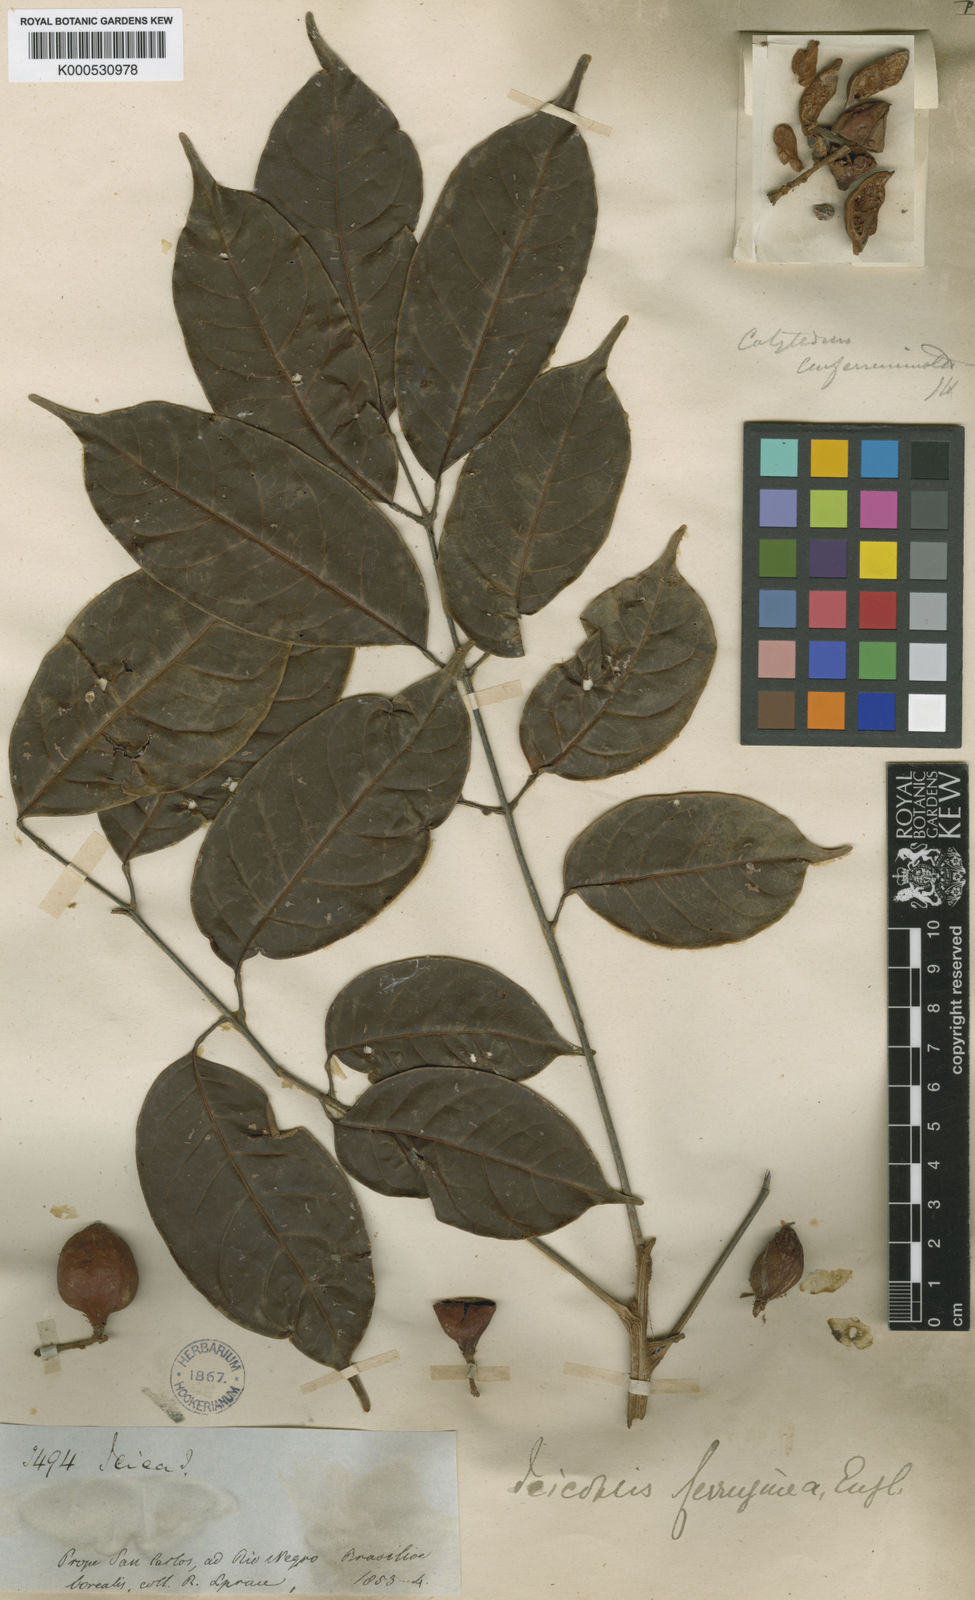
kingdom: Plantae
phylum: Tracheophyta
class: Magnoliopsida
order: Sapindales
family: Burseraceae
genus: Protium
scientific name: Protium ferrugineum
